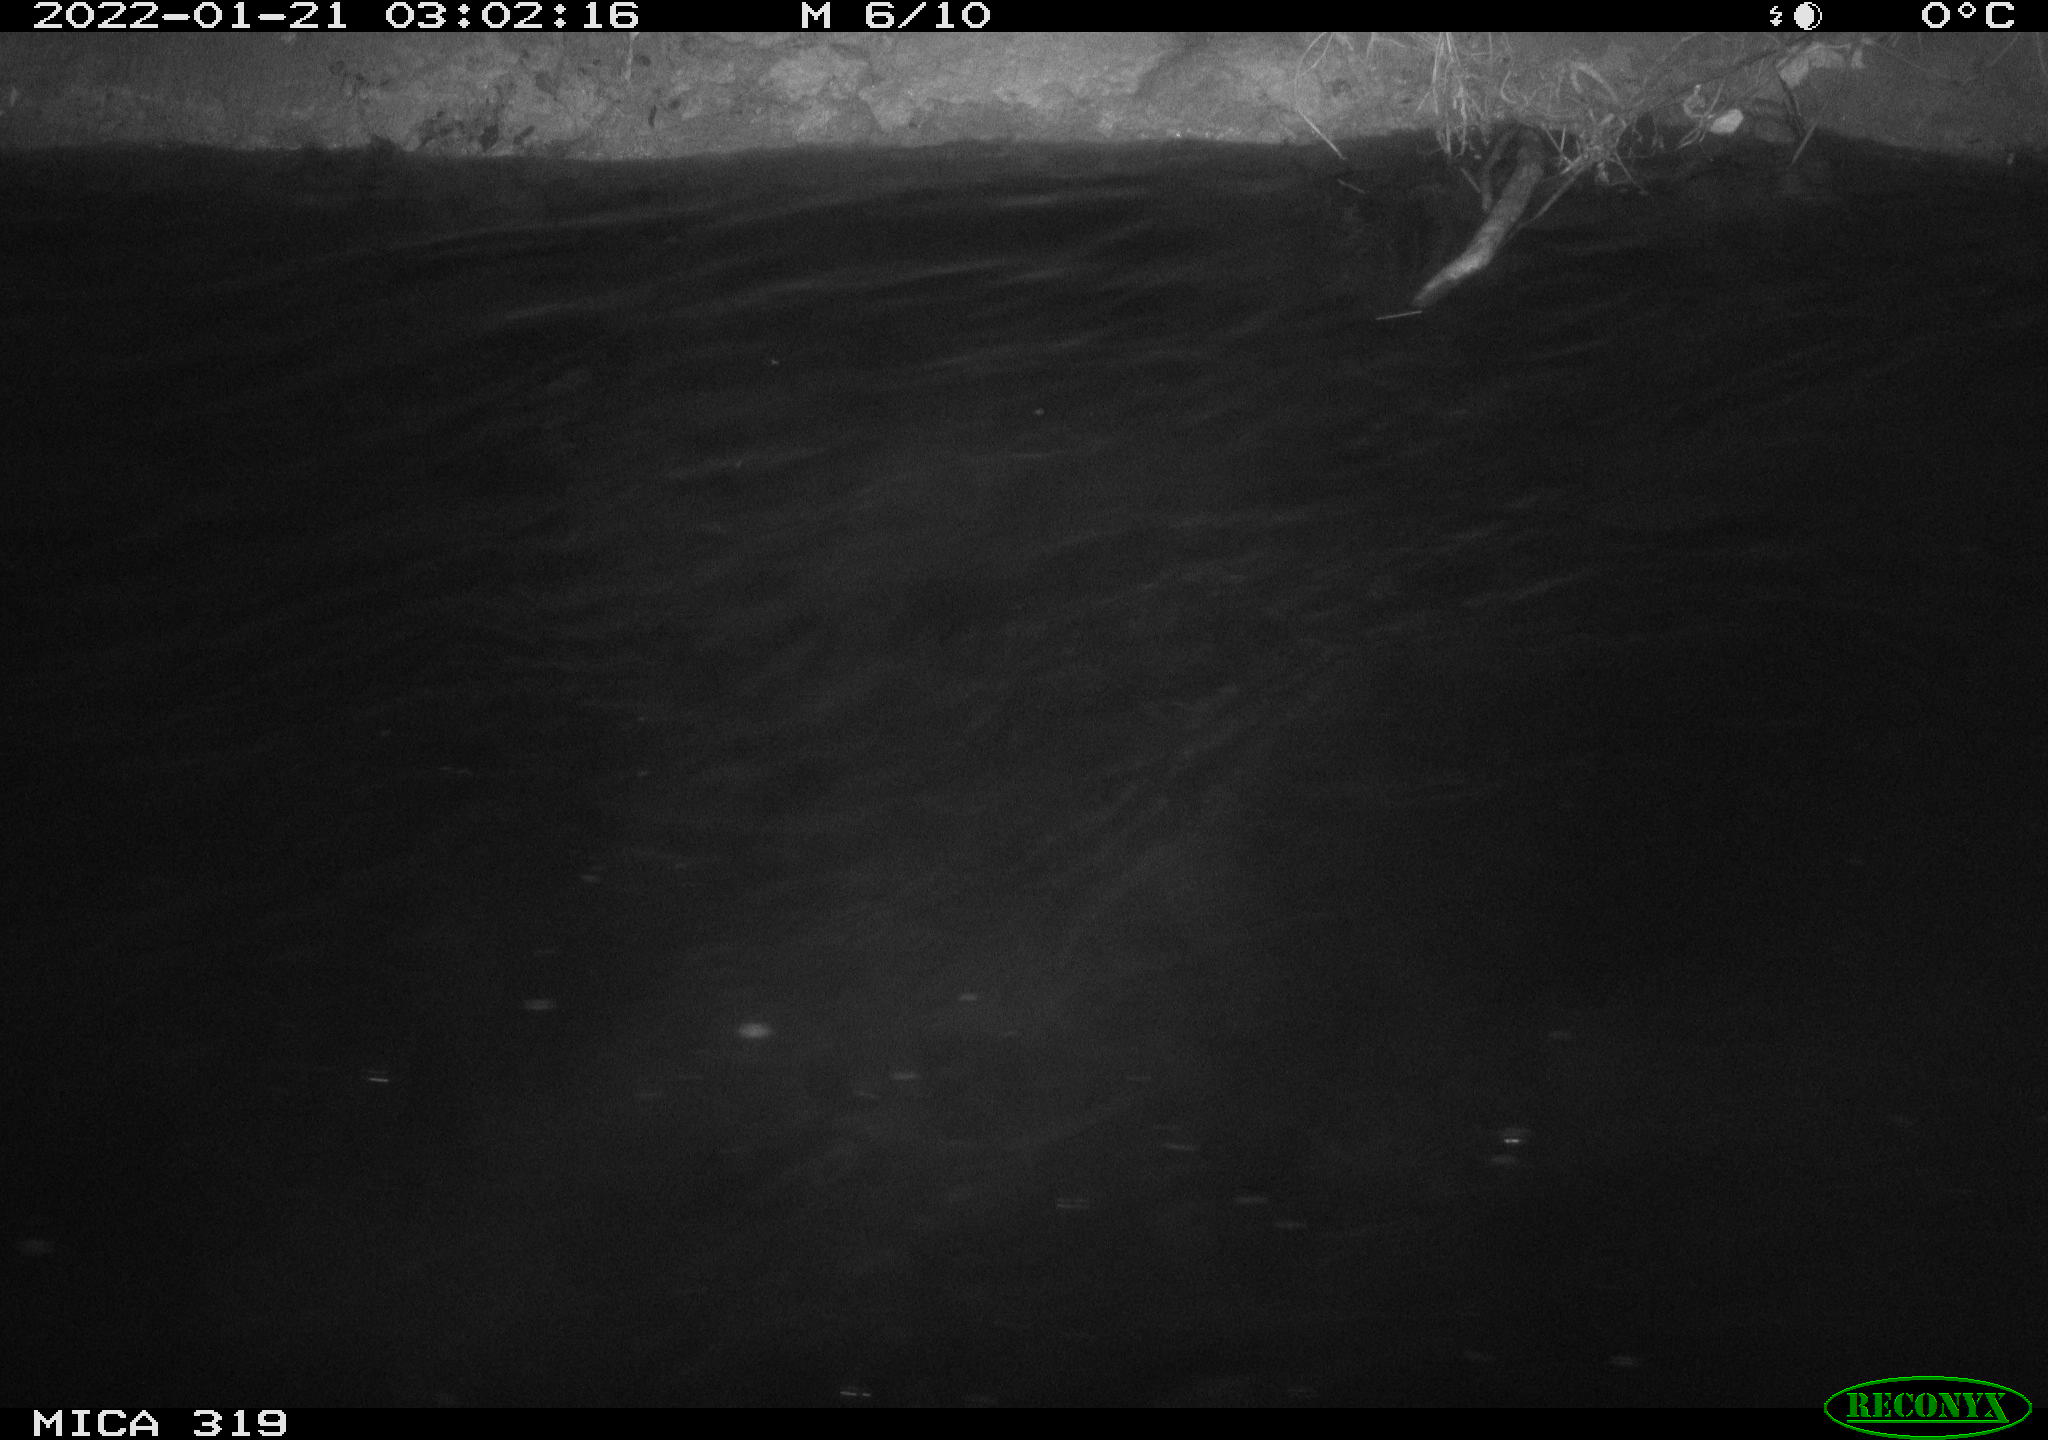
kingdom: Animalia
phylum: Chordata
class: Aves
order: Anseriformes
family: Anatidae
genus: Anas
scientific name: Anas platyrhynchos
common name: Mallard
